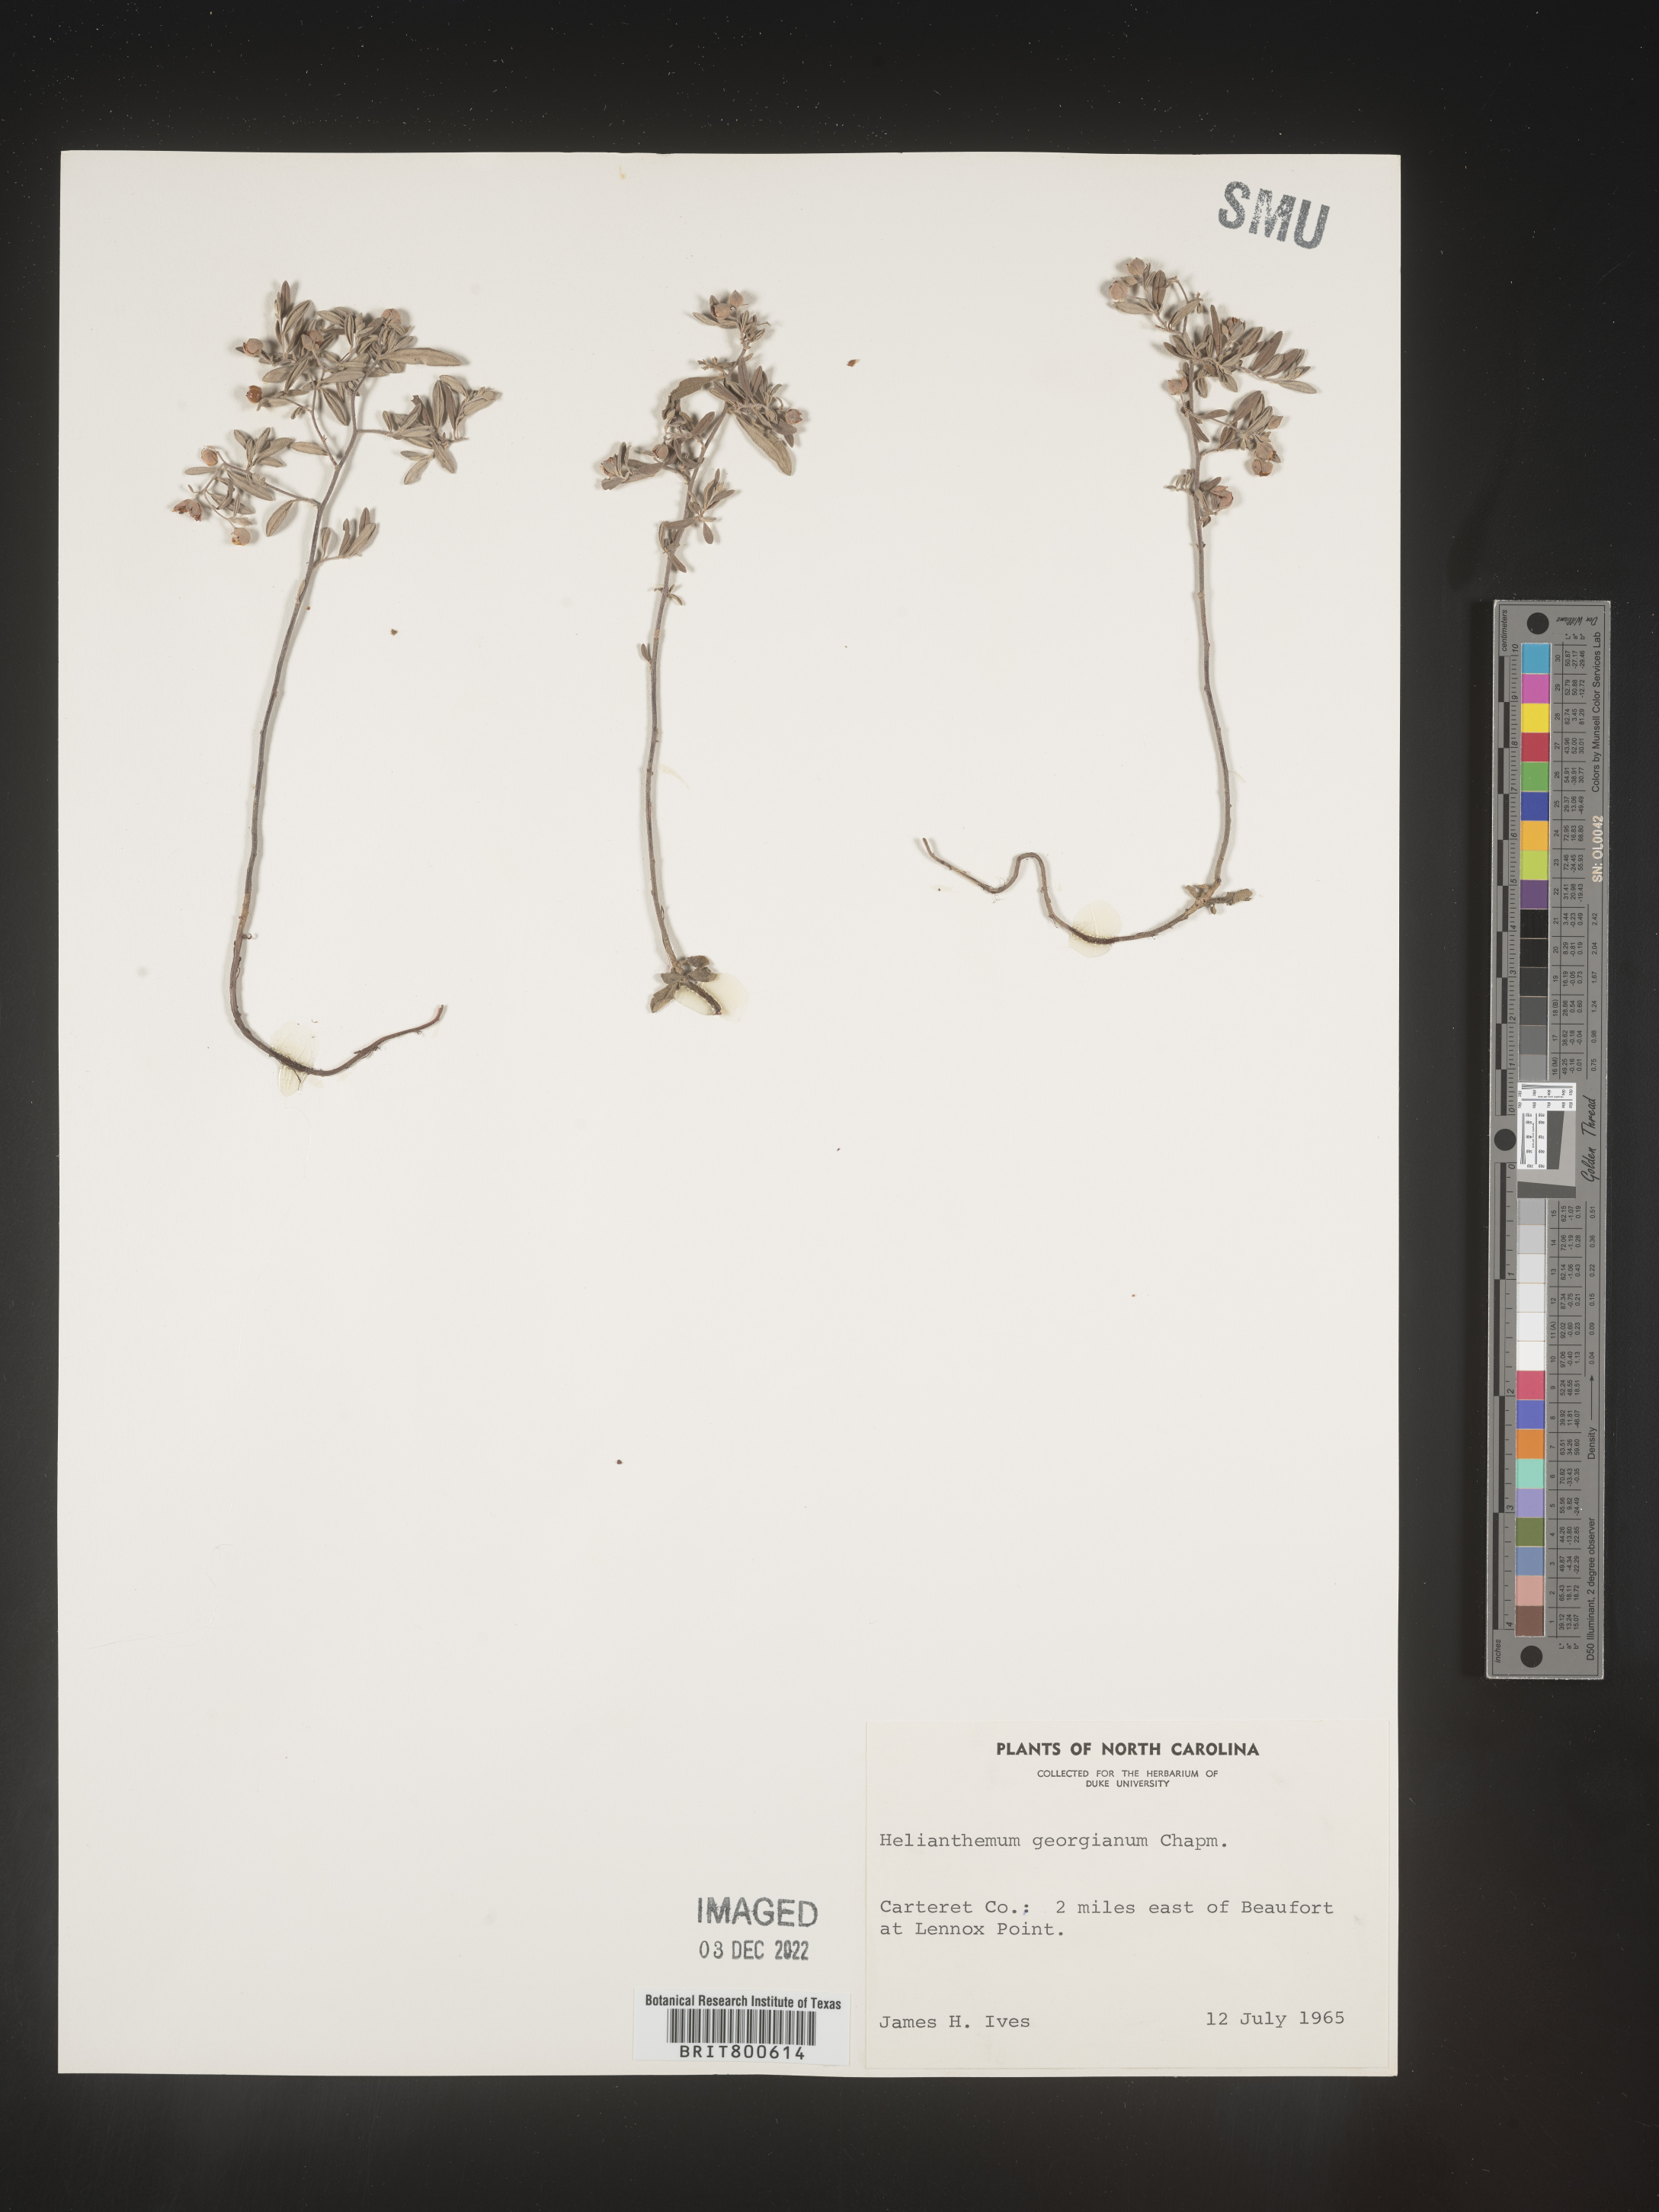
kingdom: Plantae
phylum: Tracheophyta
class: Magnoliopsida
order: Malvales
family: Cistaceae
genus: Crocanthemum
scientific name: Crocanthemum georgianum
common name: Georgia frostweed
